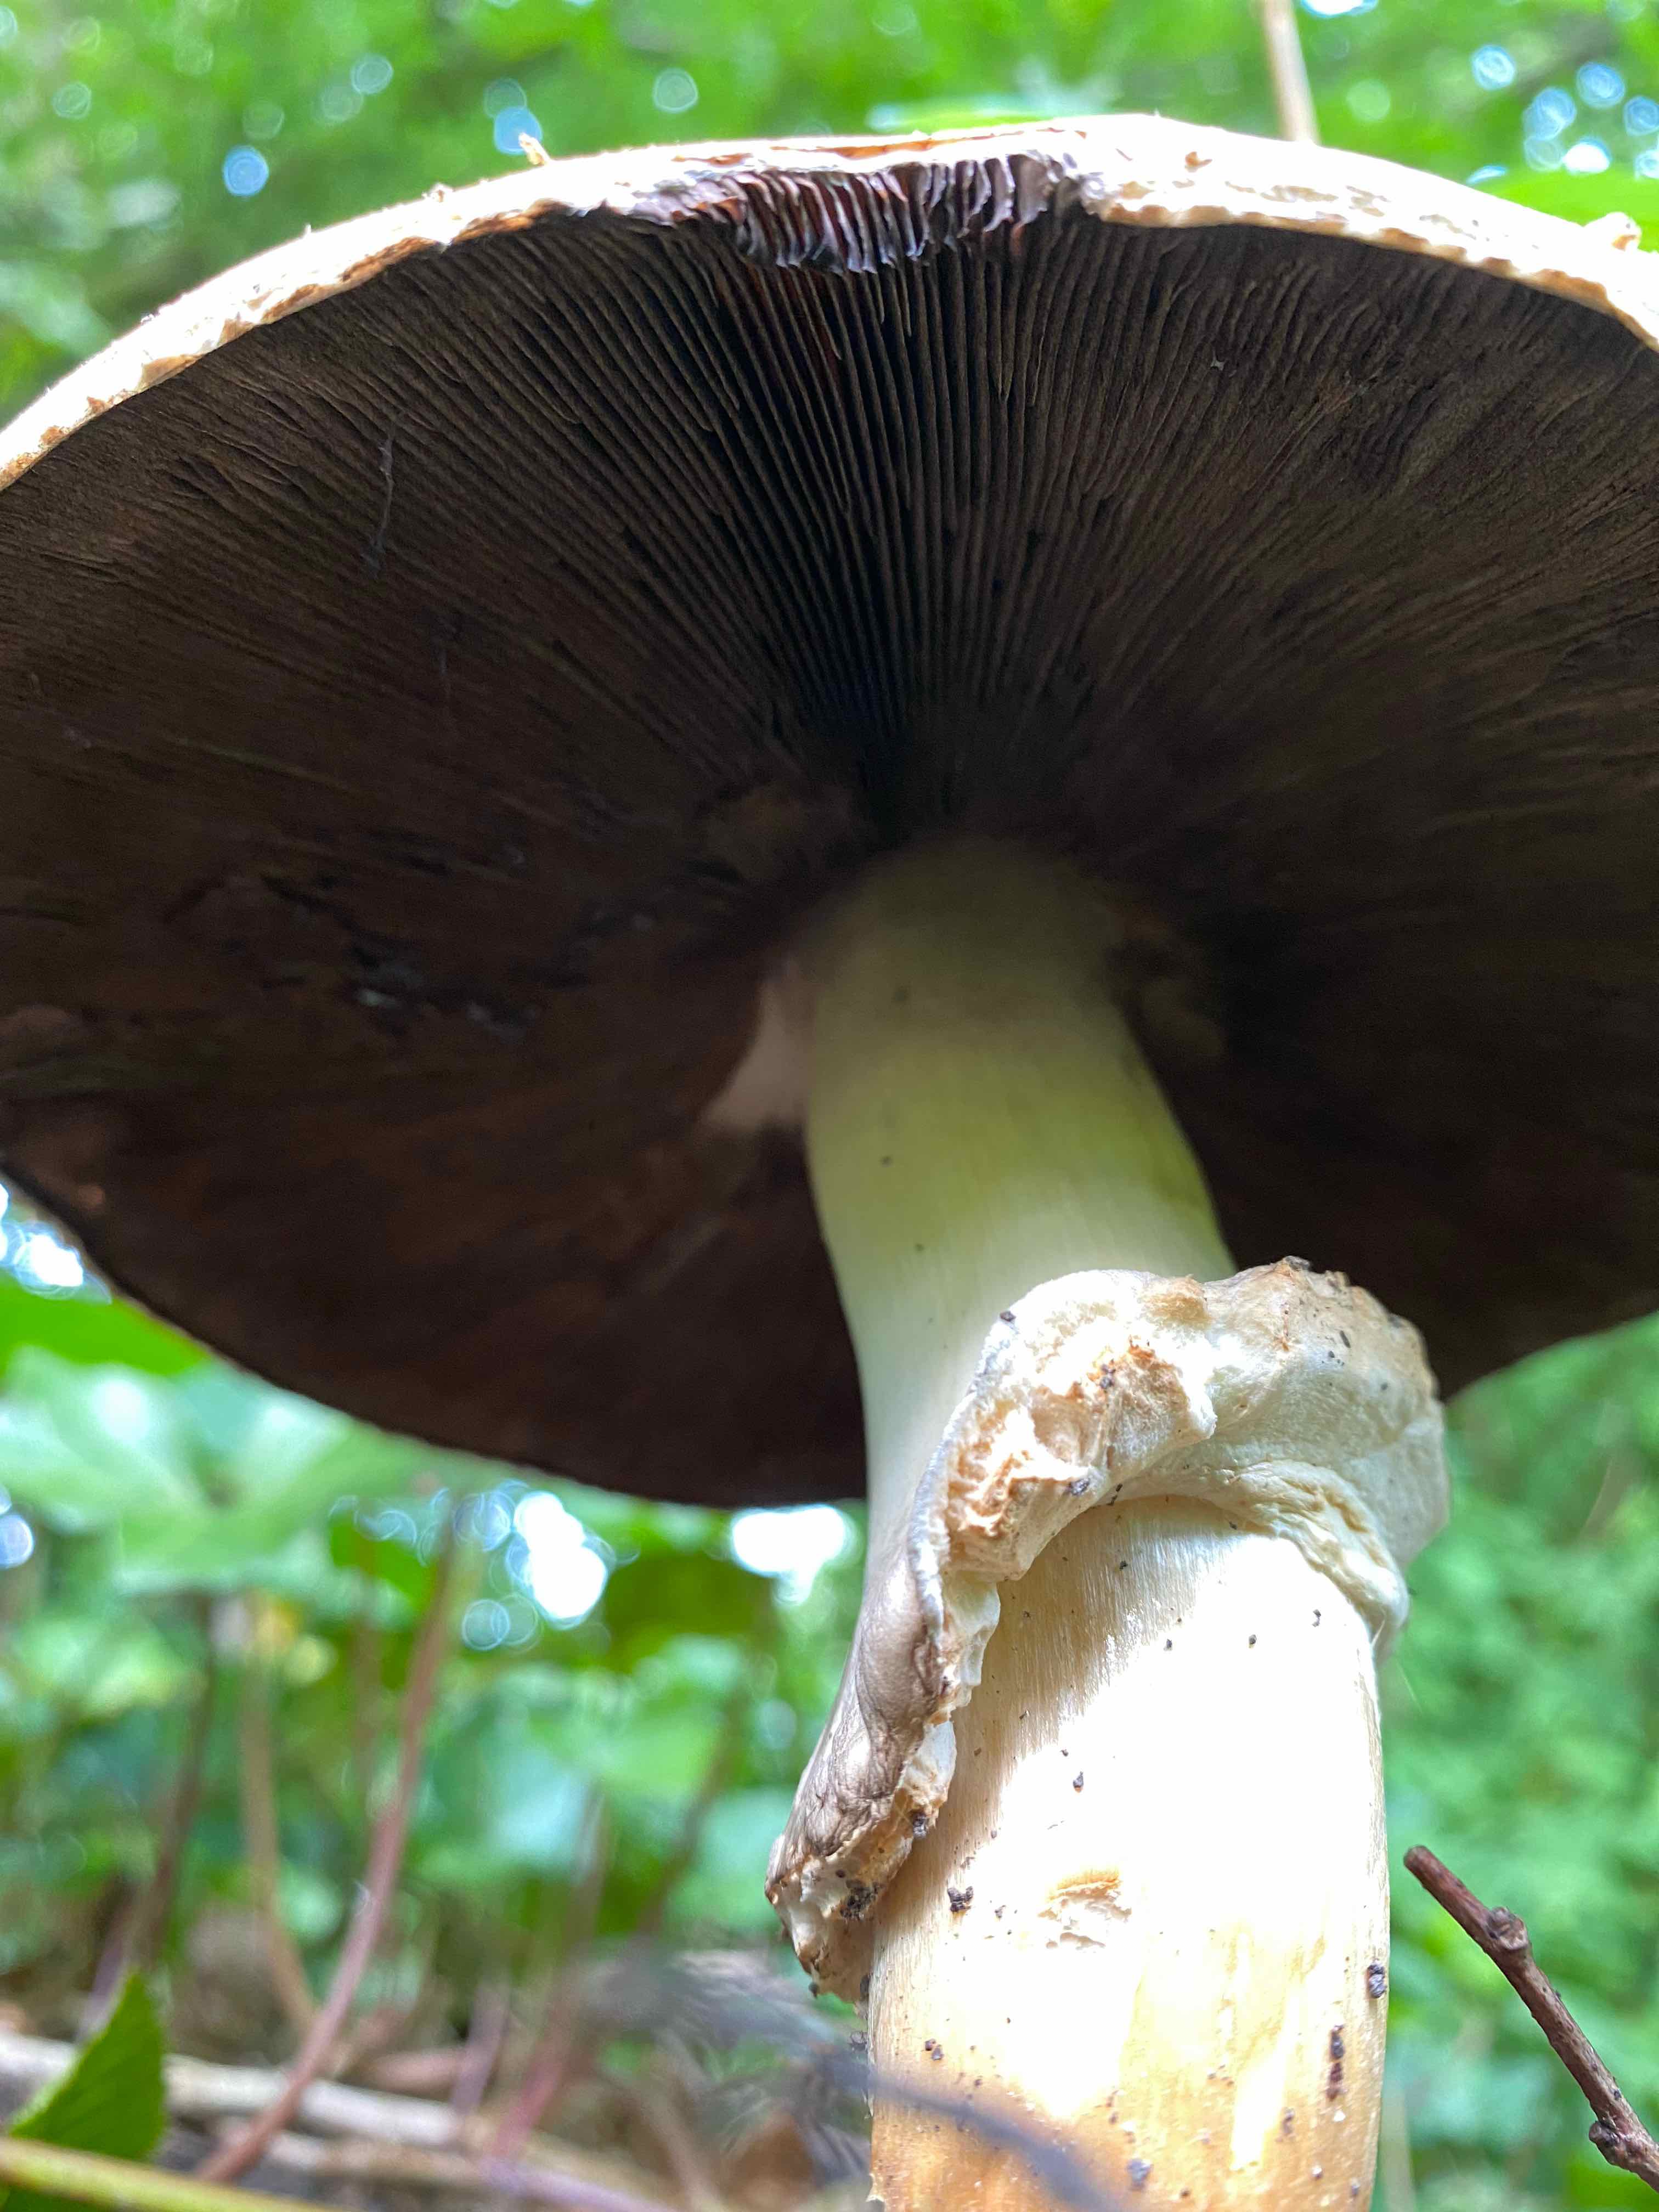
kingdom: Fungi
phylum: Basidiomycota
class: Agaricomycetes
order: Agaricales
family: Agaricaceae
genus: Agaricus
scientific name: Agaricus
